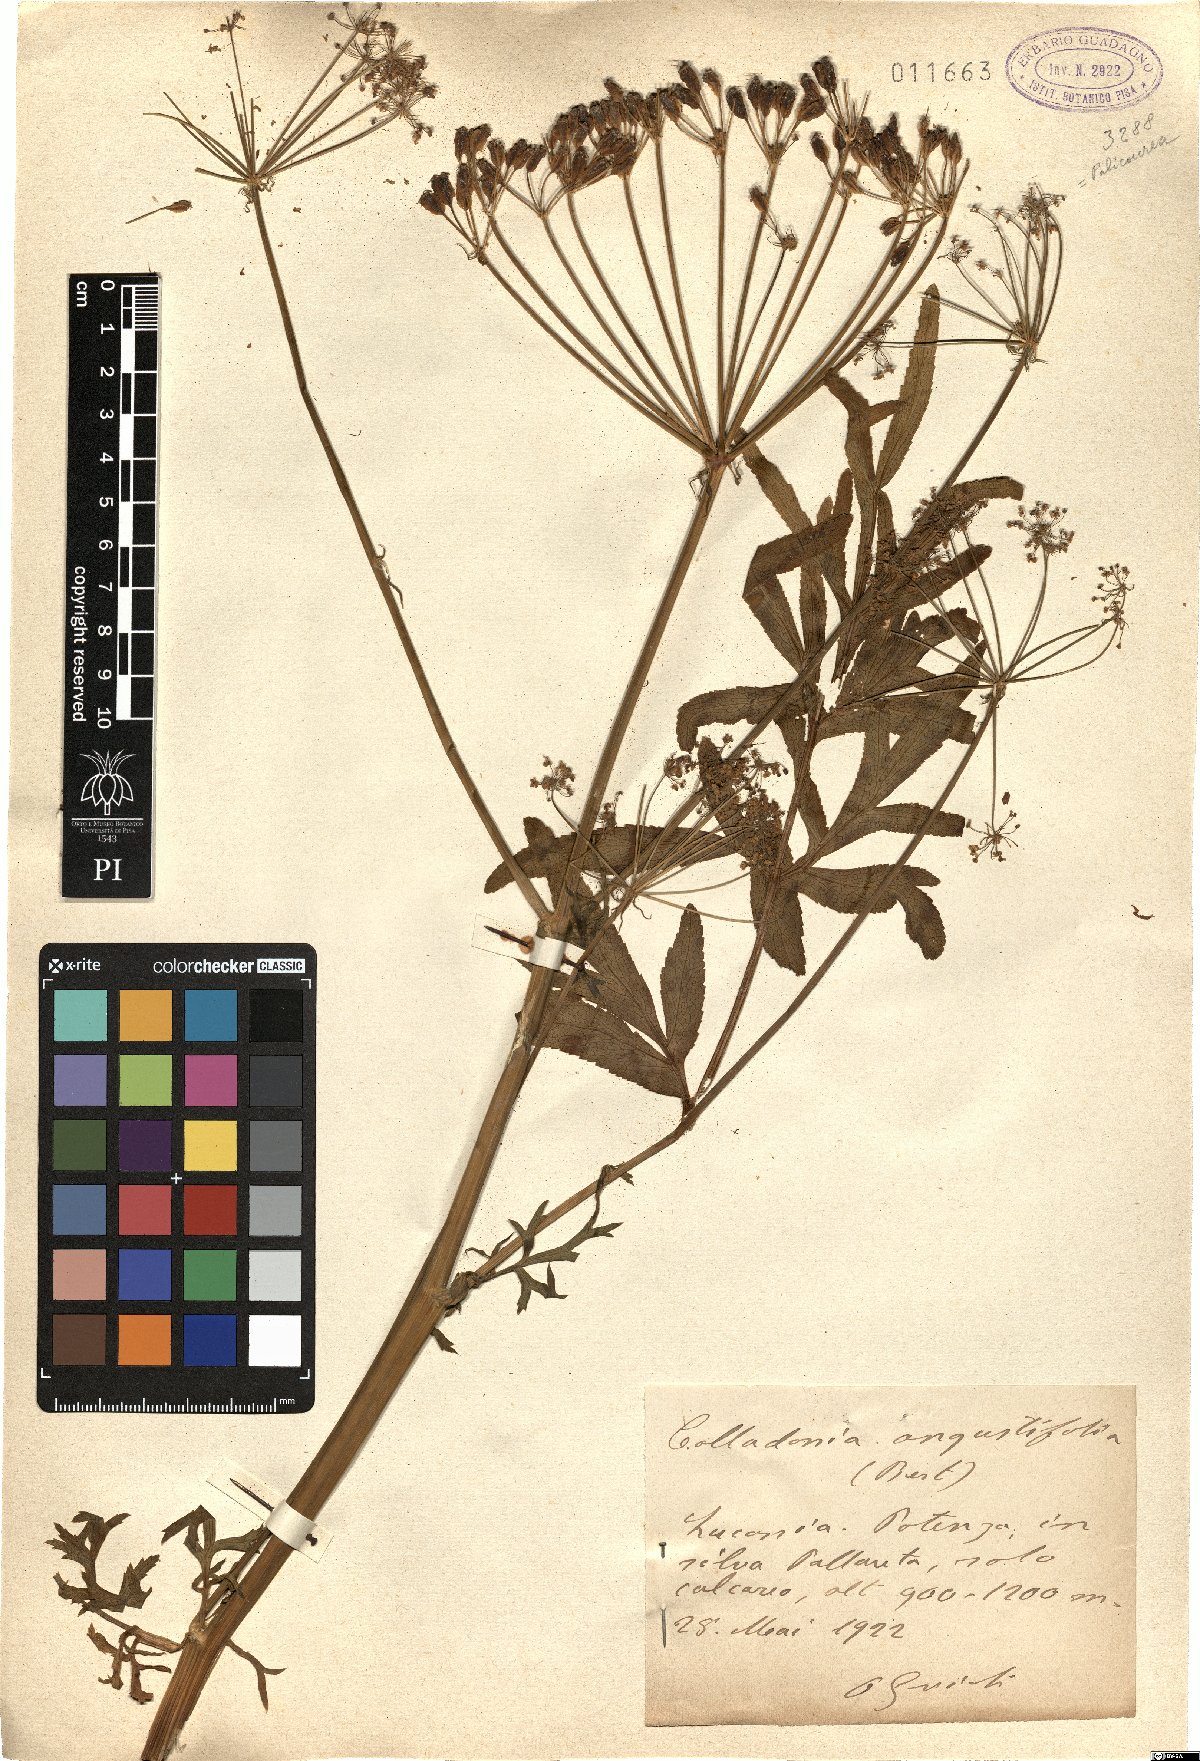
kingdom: Plantae
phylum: Tracheophyta
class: Magnoliopsida
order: Apiales
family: Apiaceae
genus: Heptaptera
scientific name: Heptaptera angustifolia
